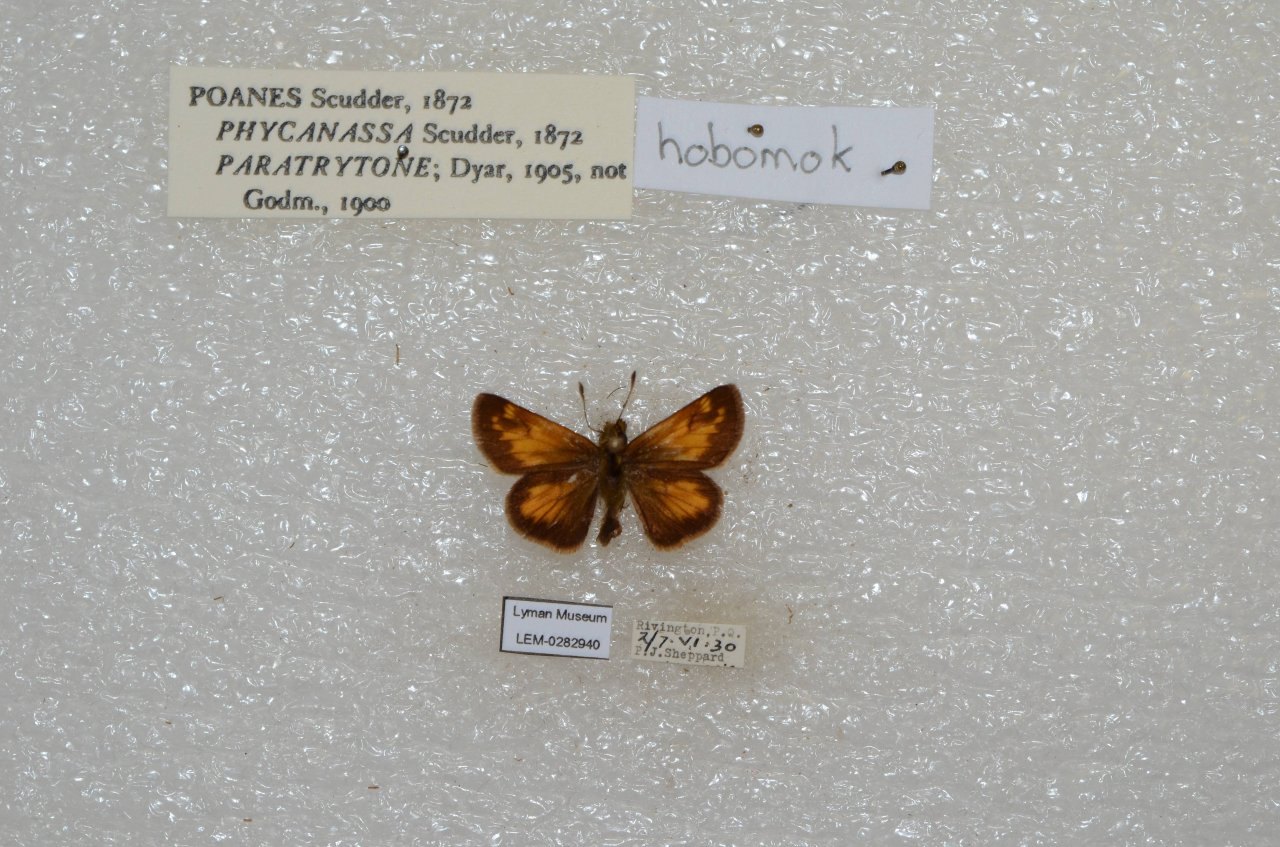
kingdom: Animalia
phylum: Arthropoda
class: Insecta
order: Lepidoptera
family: Hesperiidae
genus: Lon
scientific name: Lon hobomok
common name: Hobomok Skipper
